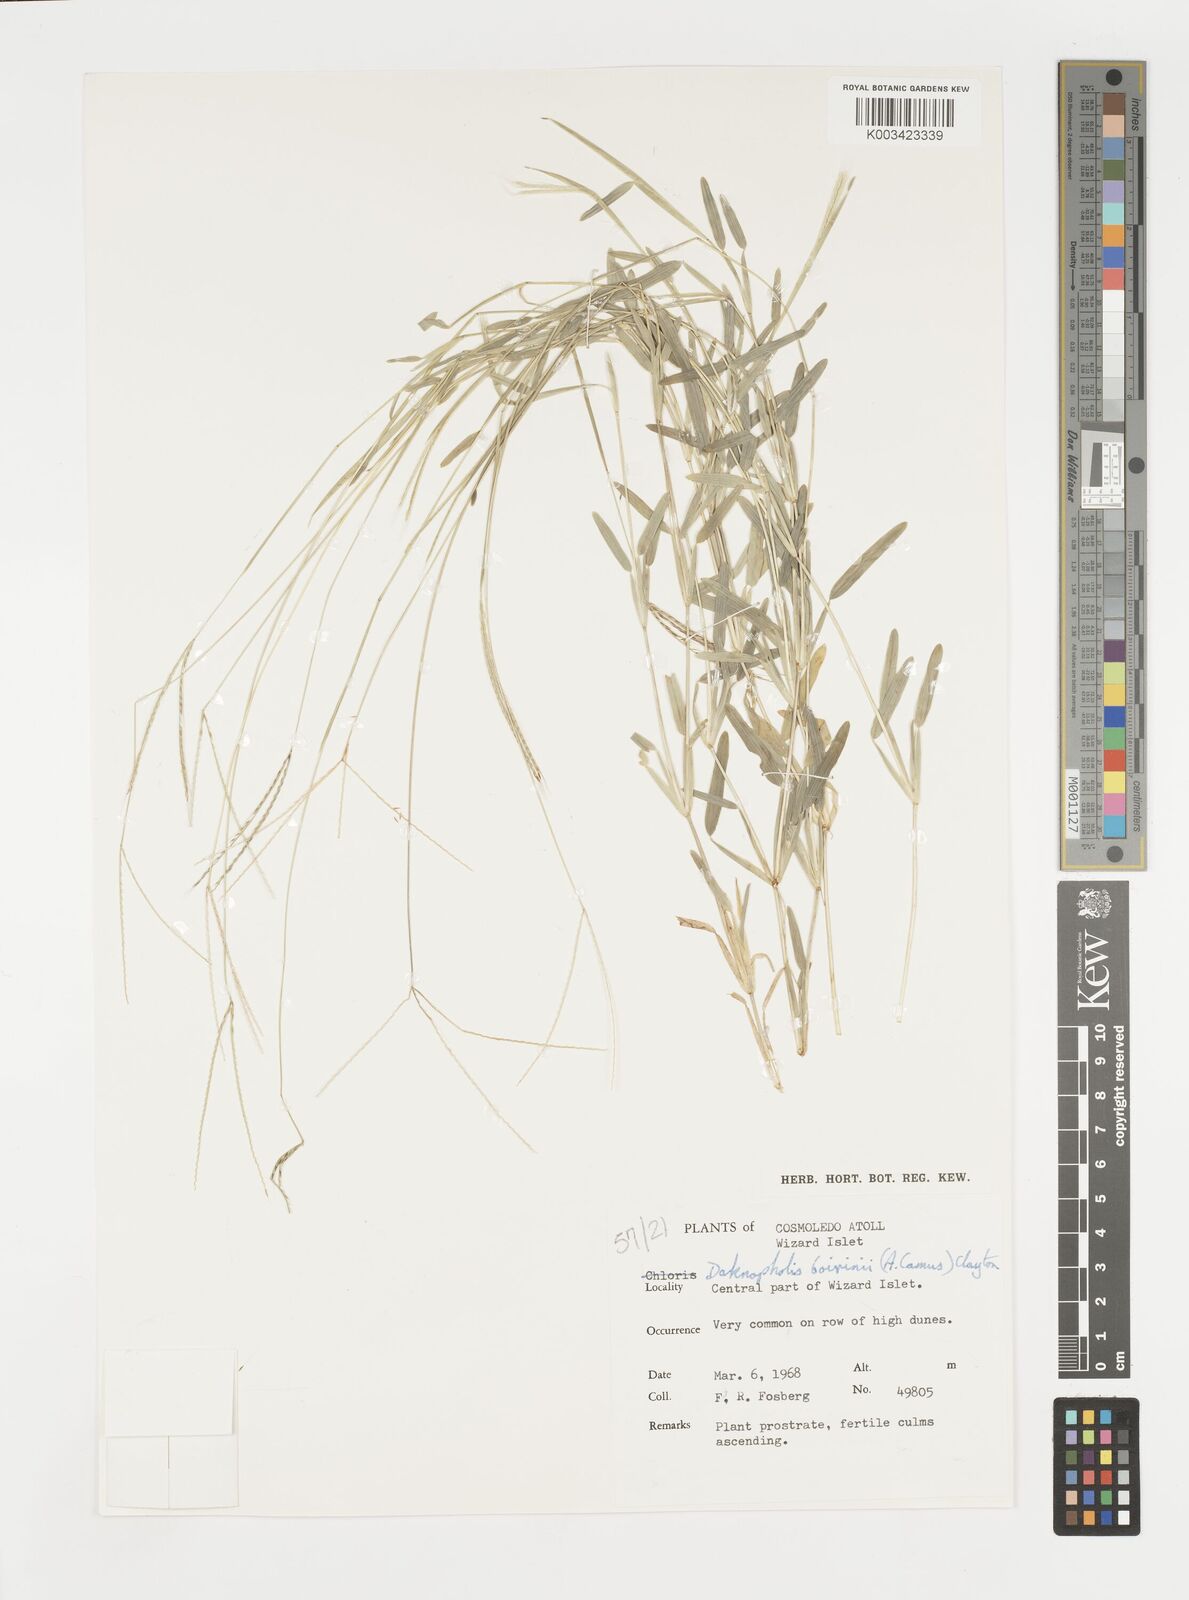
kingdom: Plantae
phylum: Tracheophyta
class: Liliopsida
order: Poales
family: Poaceae
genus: Daknopholis
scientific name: Daknopholis boivinii
